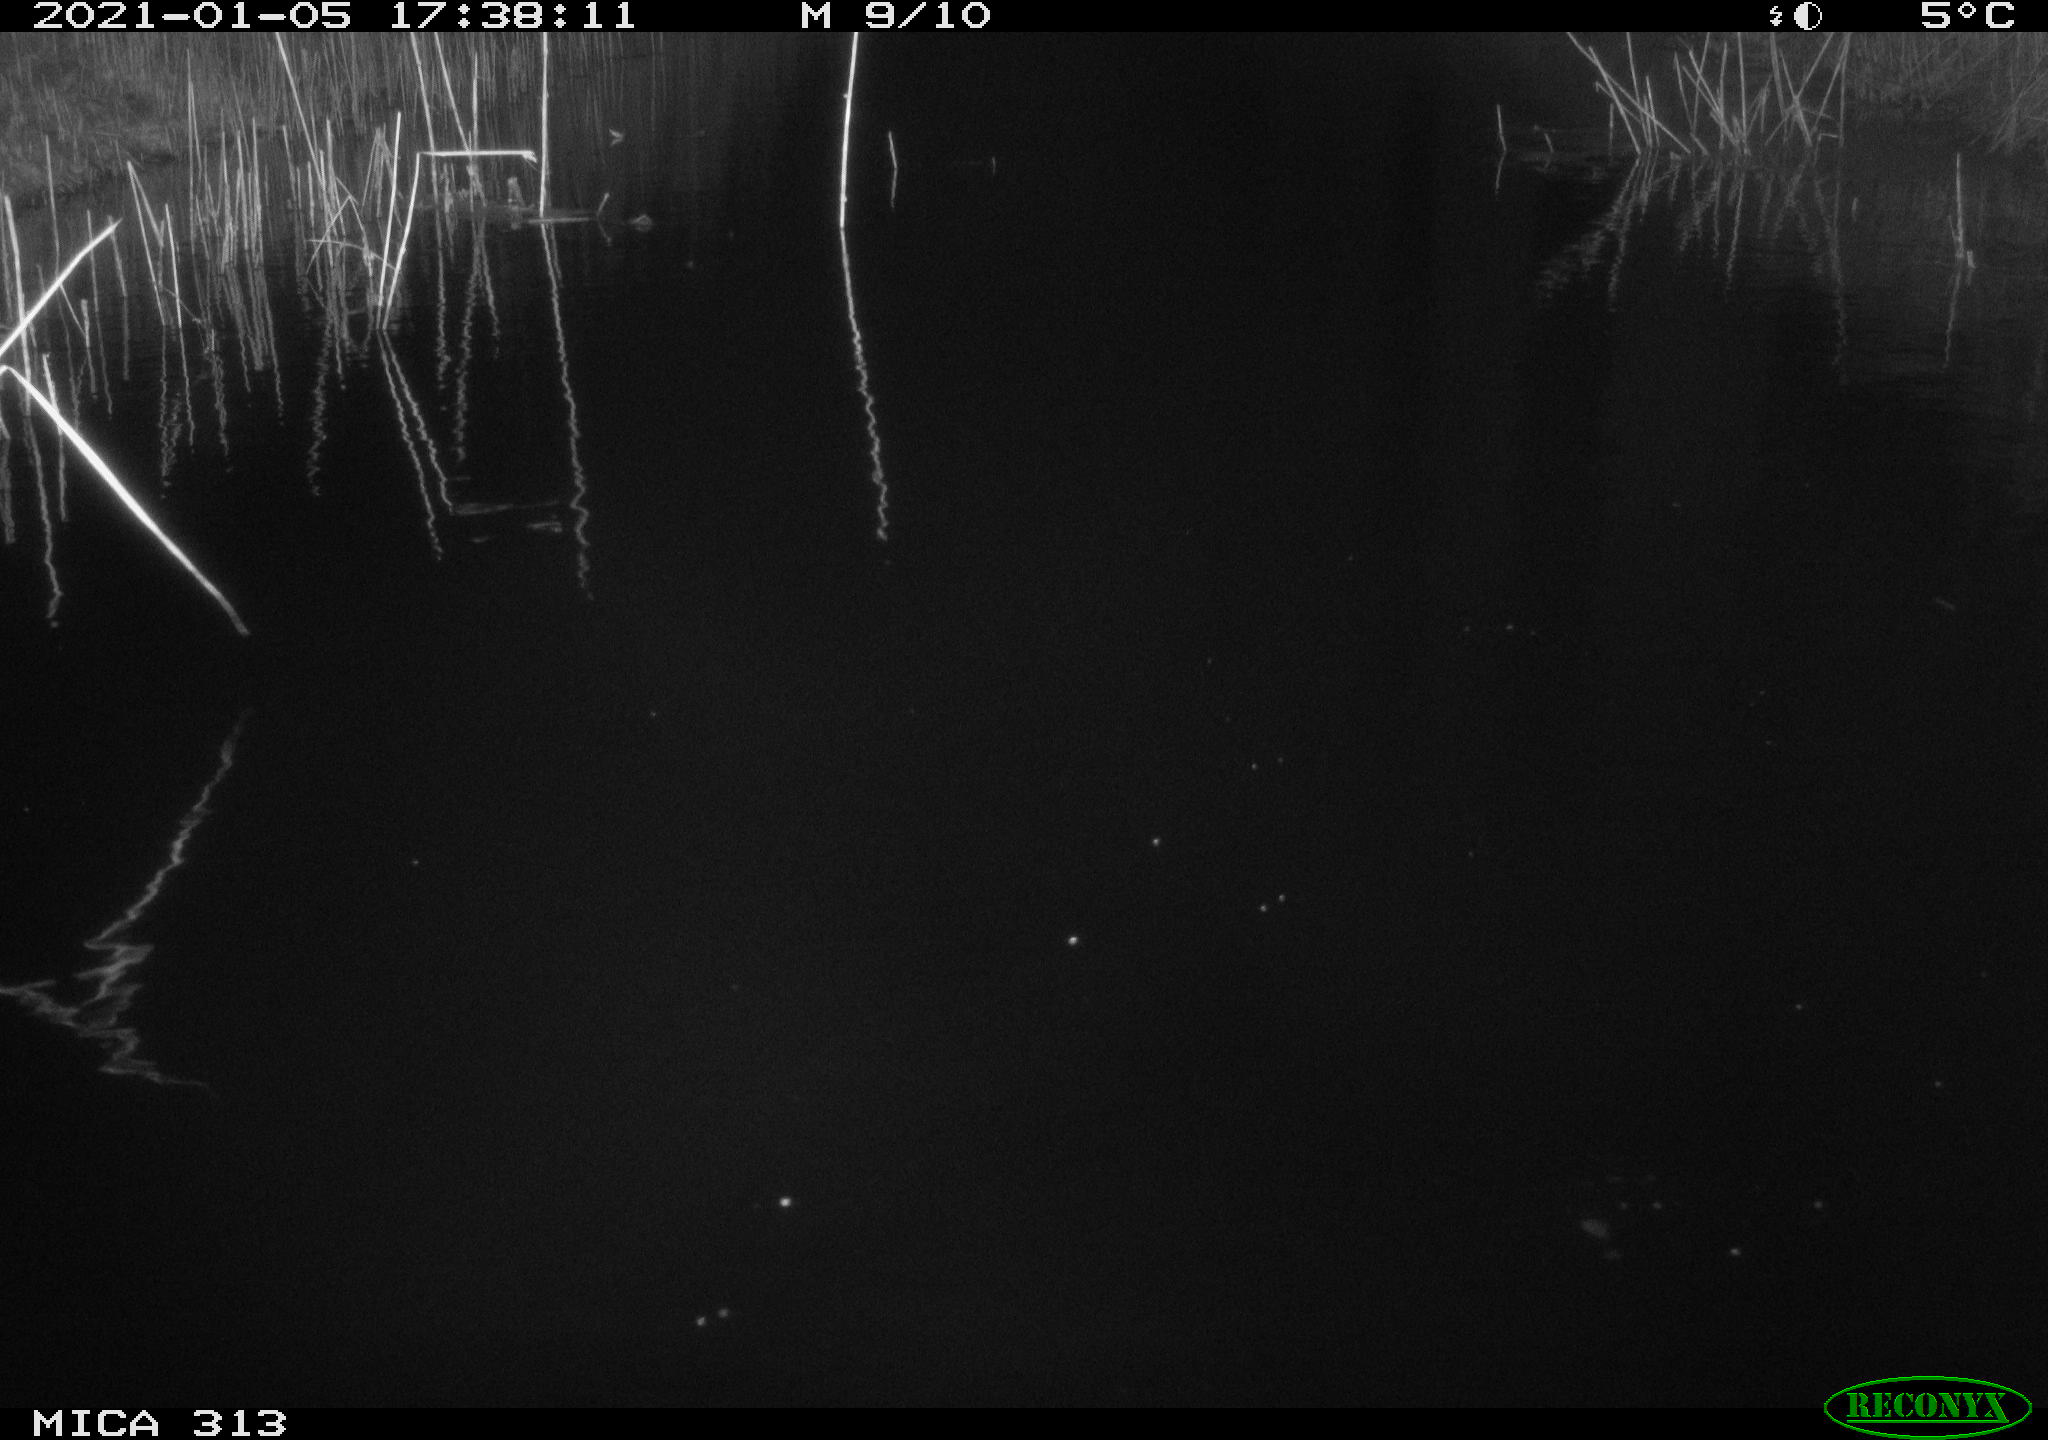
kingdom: Animalia
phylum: Chordata
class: Aves
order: Gruiformes
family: Rallidae
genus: Gallinula
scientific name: Gallinula chloropus
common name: Common moorhen
